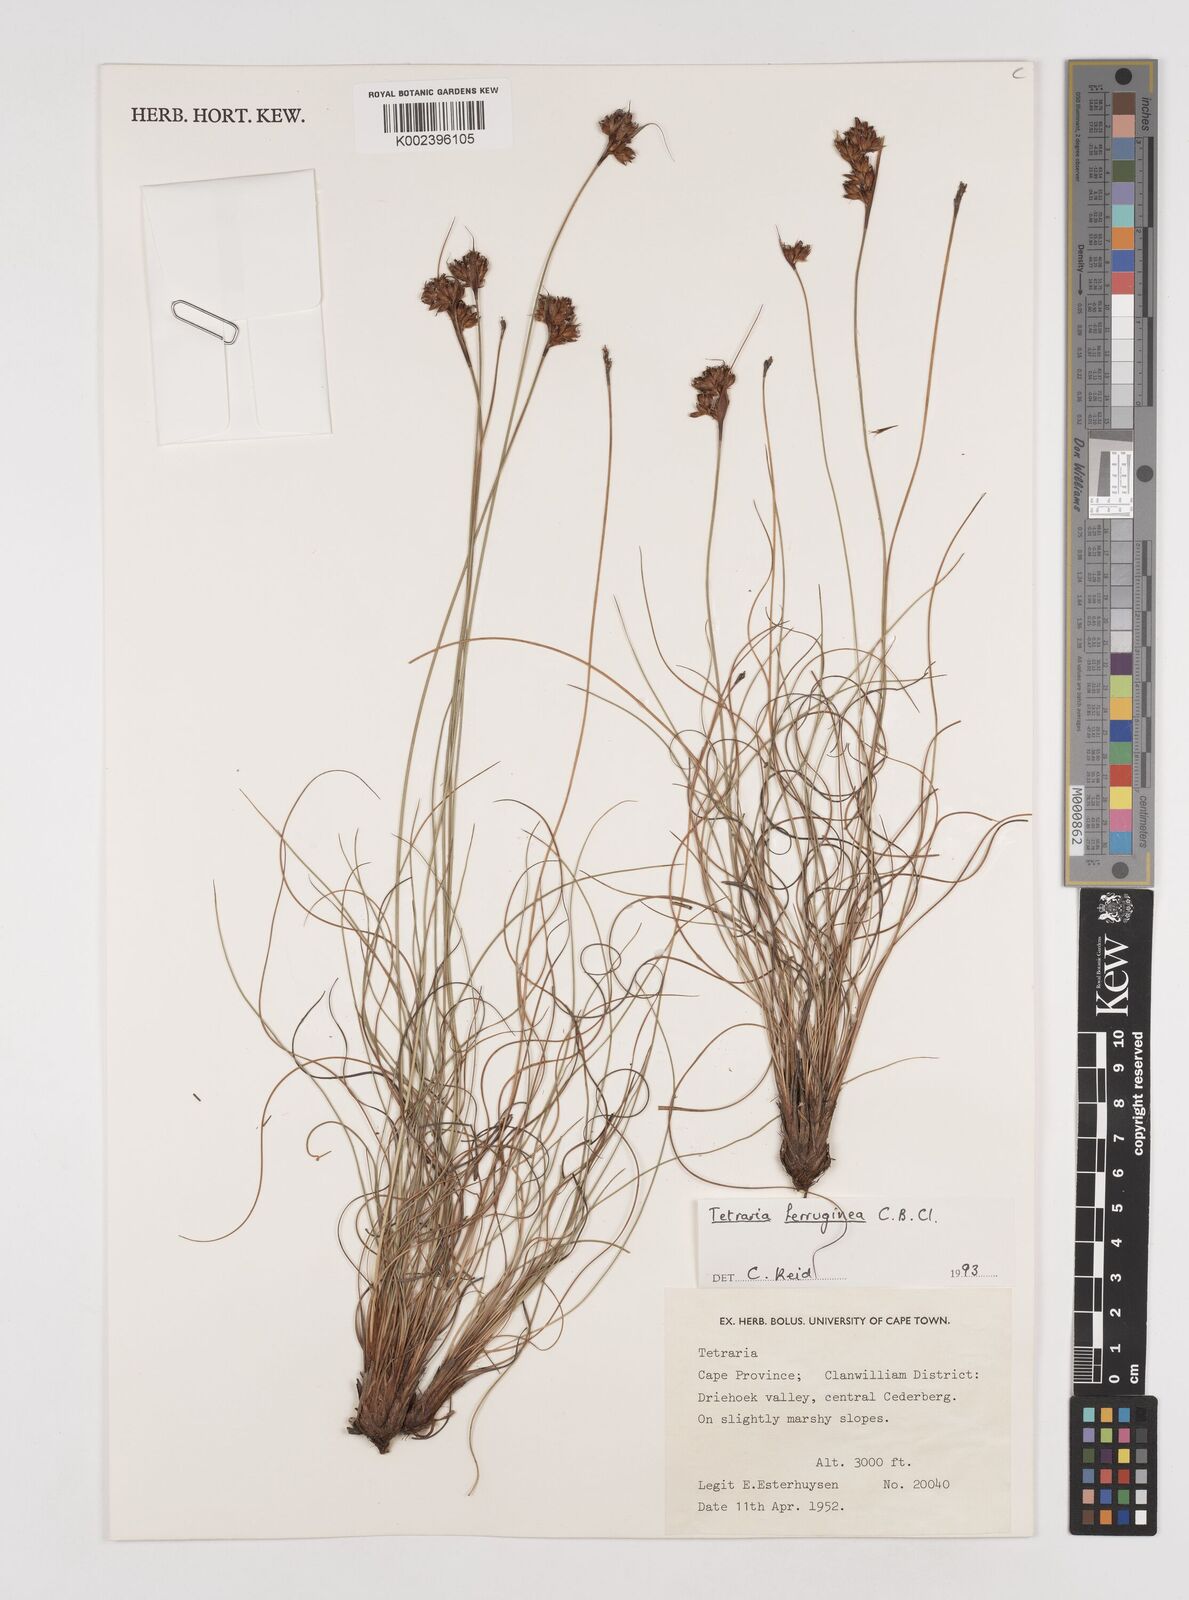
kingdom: Plantae
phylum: Tracheophyta
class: Liliopsida
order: Poales
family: Cyperaceae
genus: Tetraria
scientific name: Tetraria ferruginea
